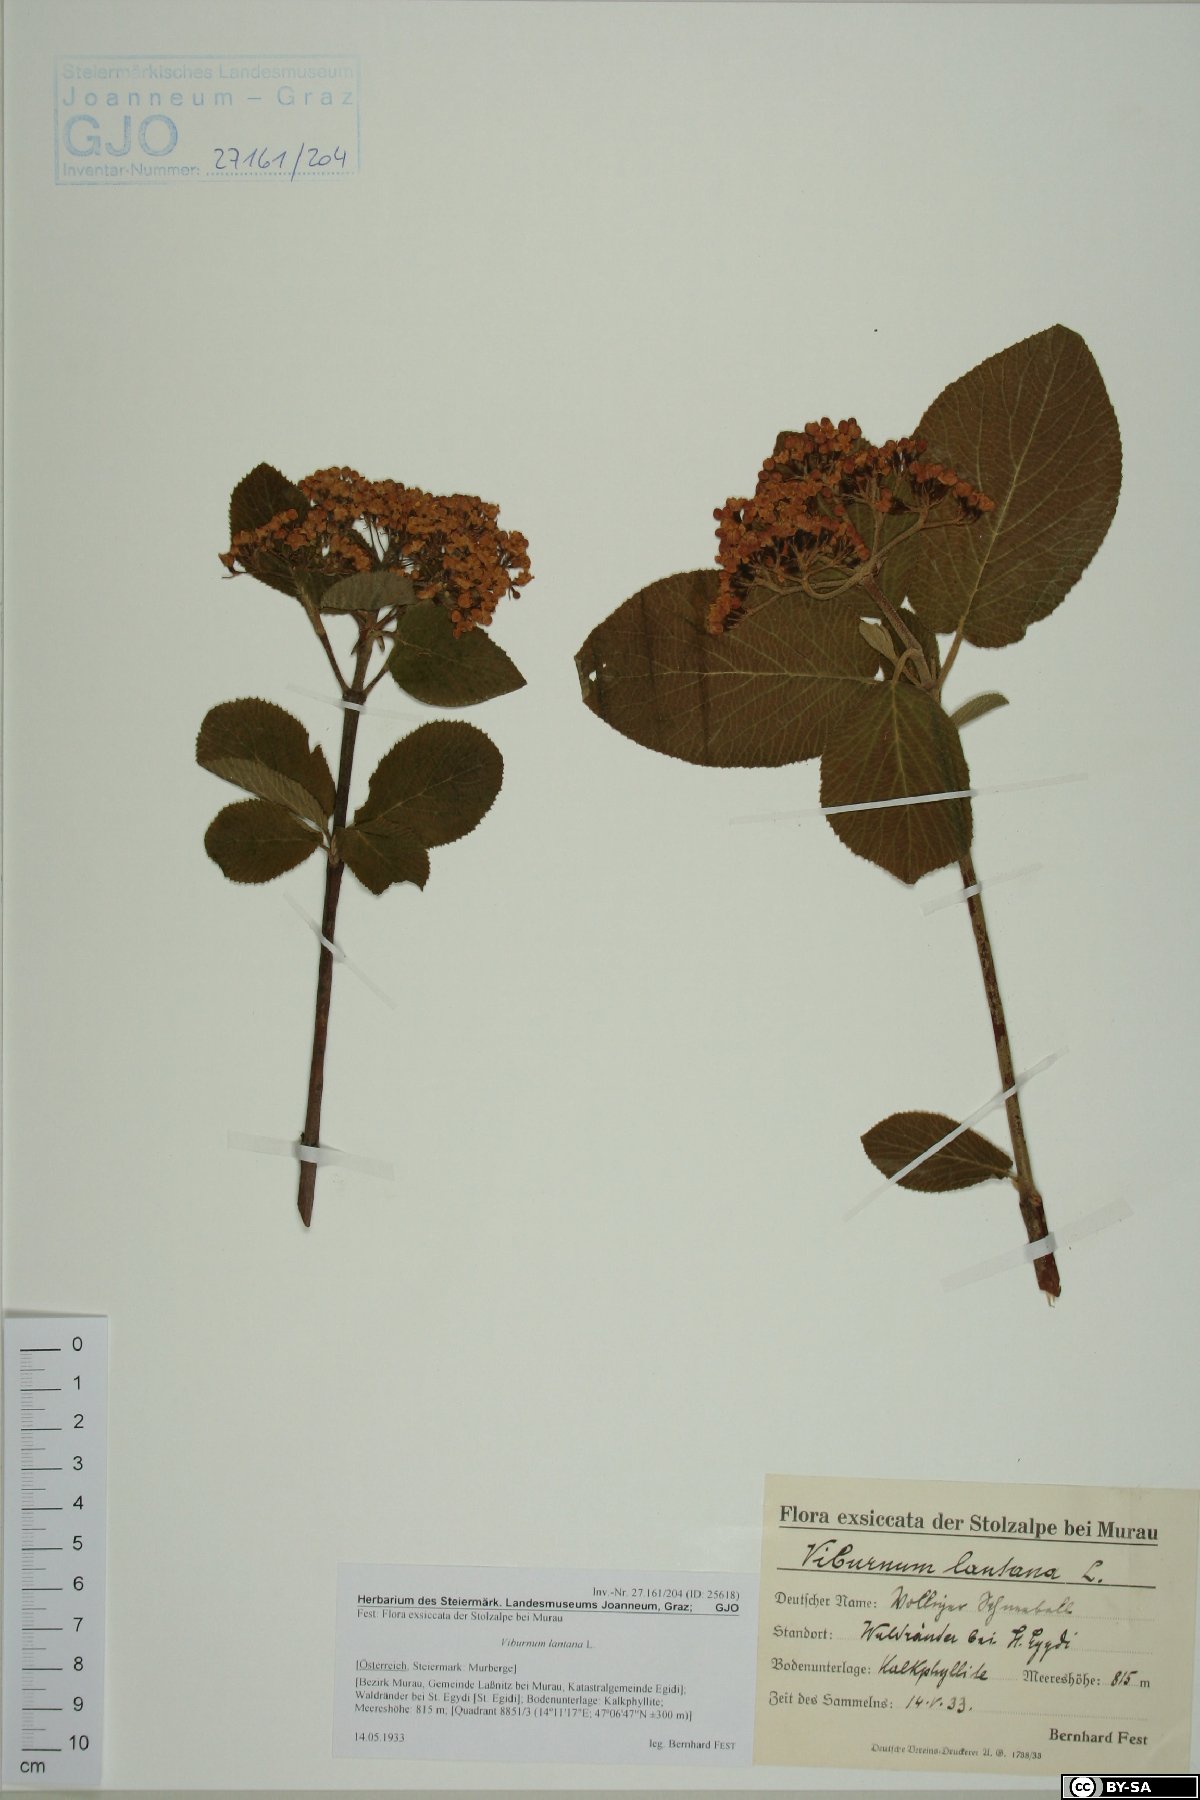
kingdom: Plantae
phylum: Tracheophyta
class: Magnoliopsida
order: Dipsacales
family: Viburnaceae
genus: Viburnum
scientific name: Viburnum lantana
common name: Wayfaring tree
